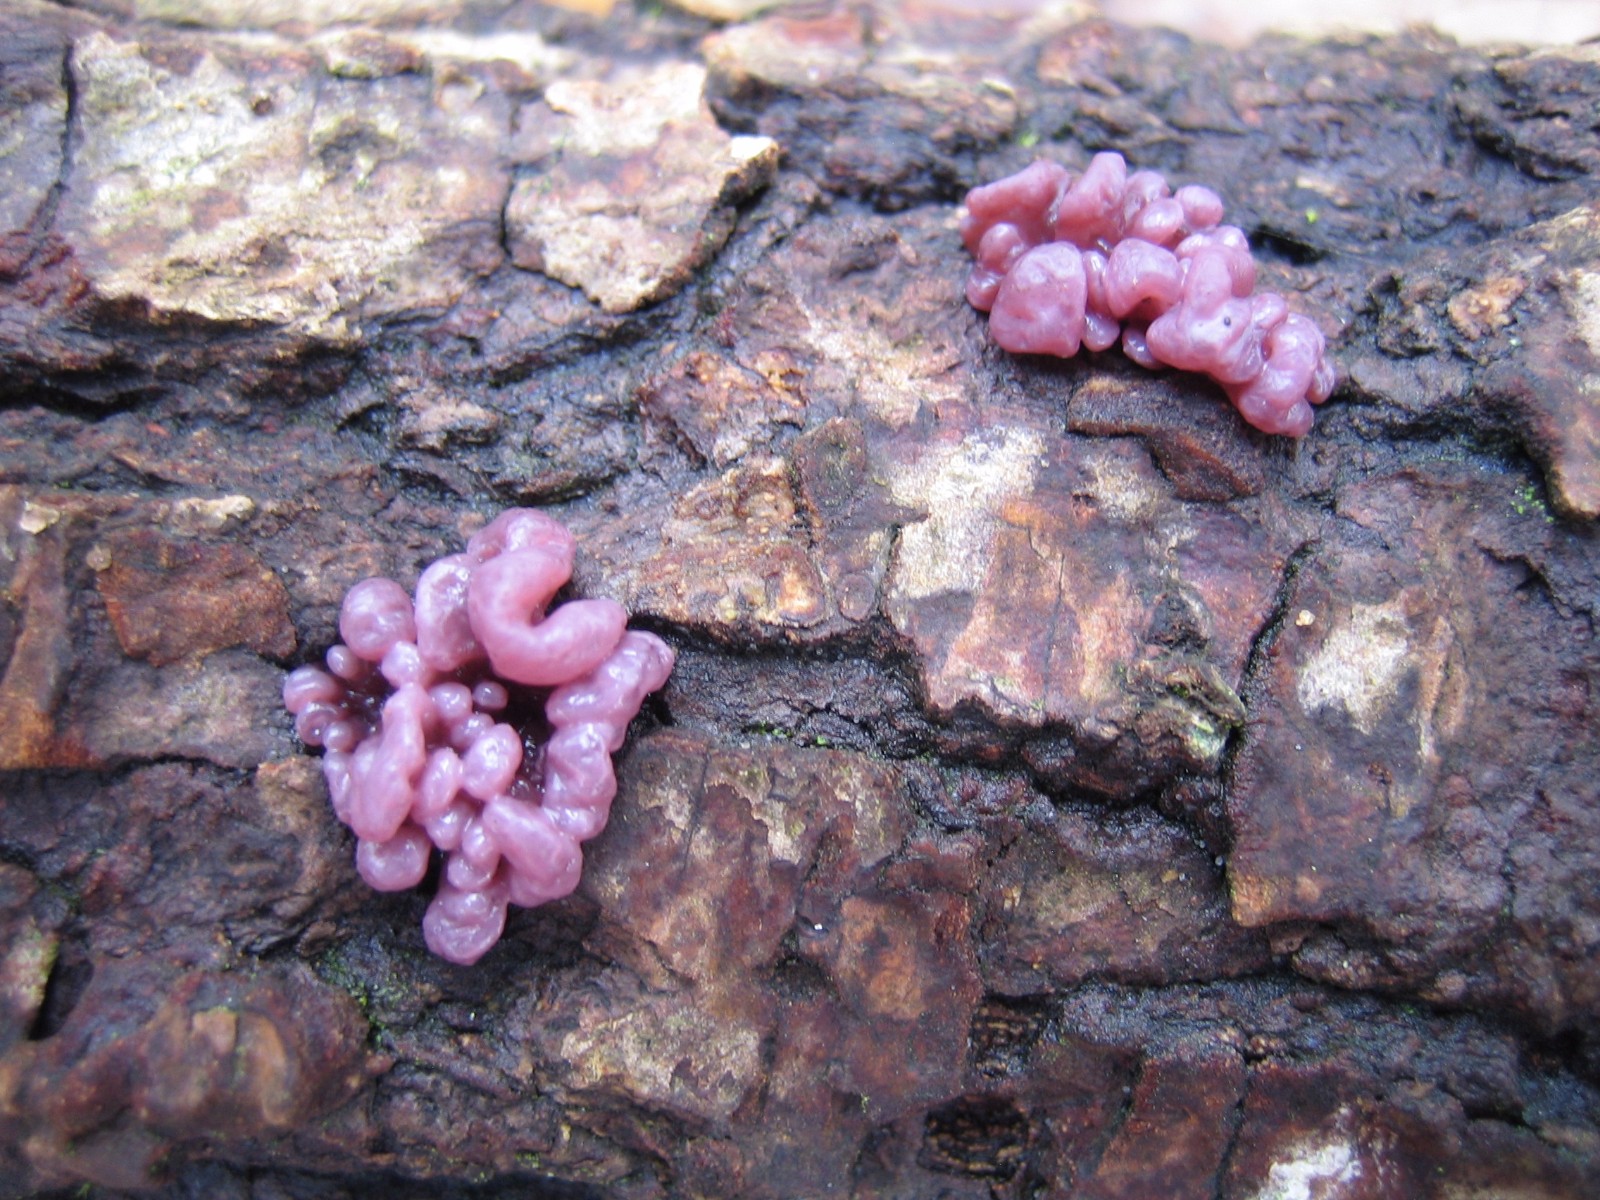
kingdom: Fungi
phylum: Ascomycota
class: Leotiomycetes
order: Helotiales
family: Gelatinodiscaceae
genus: Ascocoryne
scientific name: Ascocoryne sarcoides
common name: rødlilla sejskive
